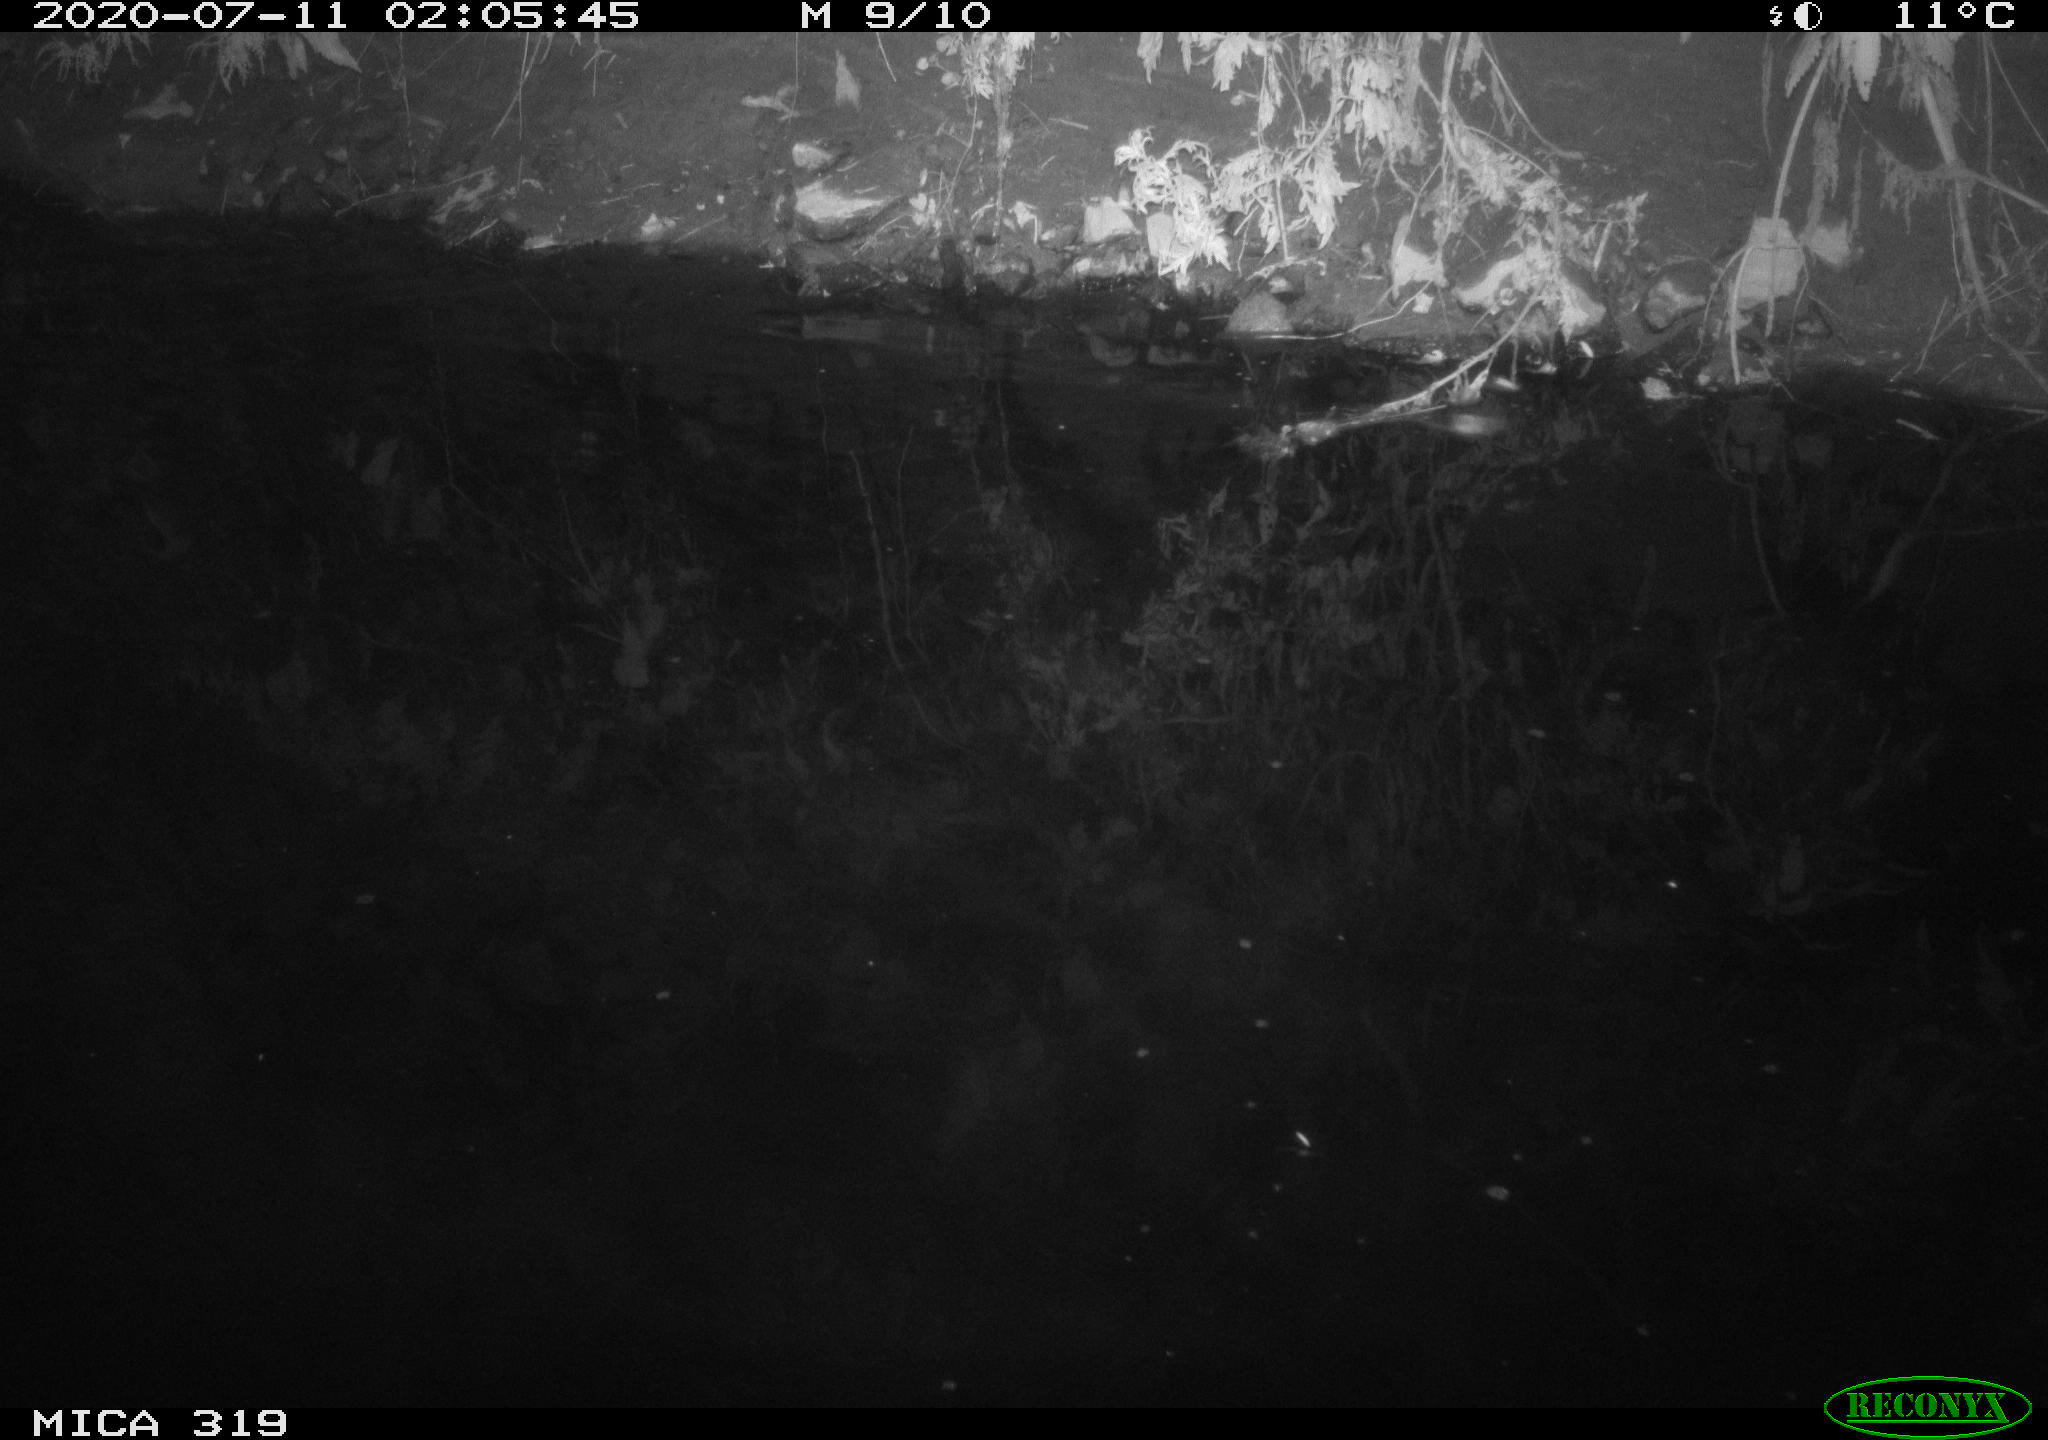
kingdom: Animalia
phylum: Chordata
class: Aves
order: Anseriformes
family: Anatidae
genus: Anas
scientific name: Anas platyrhynchos
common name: Mallard
